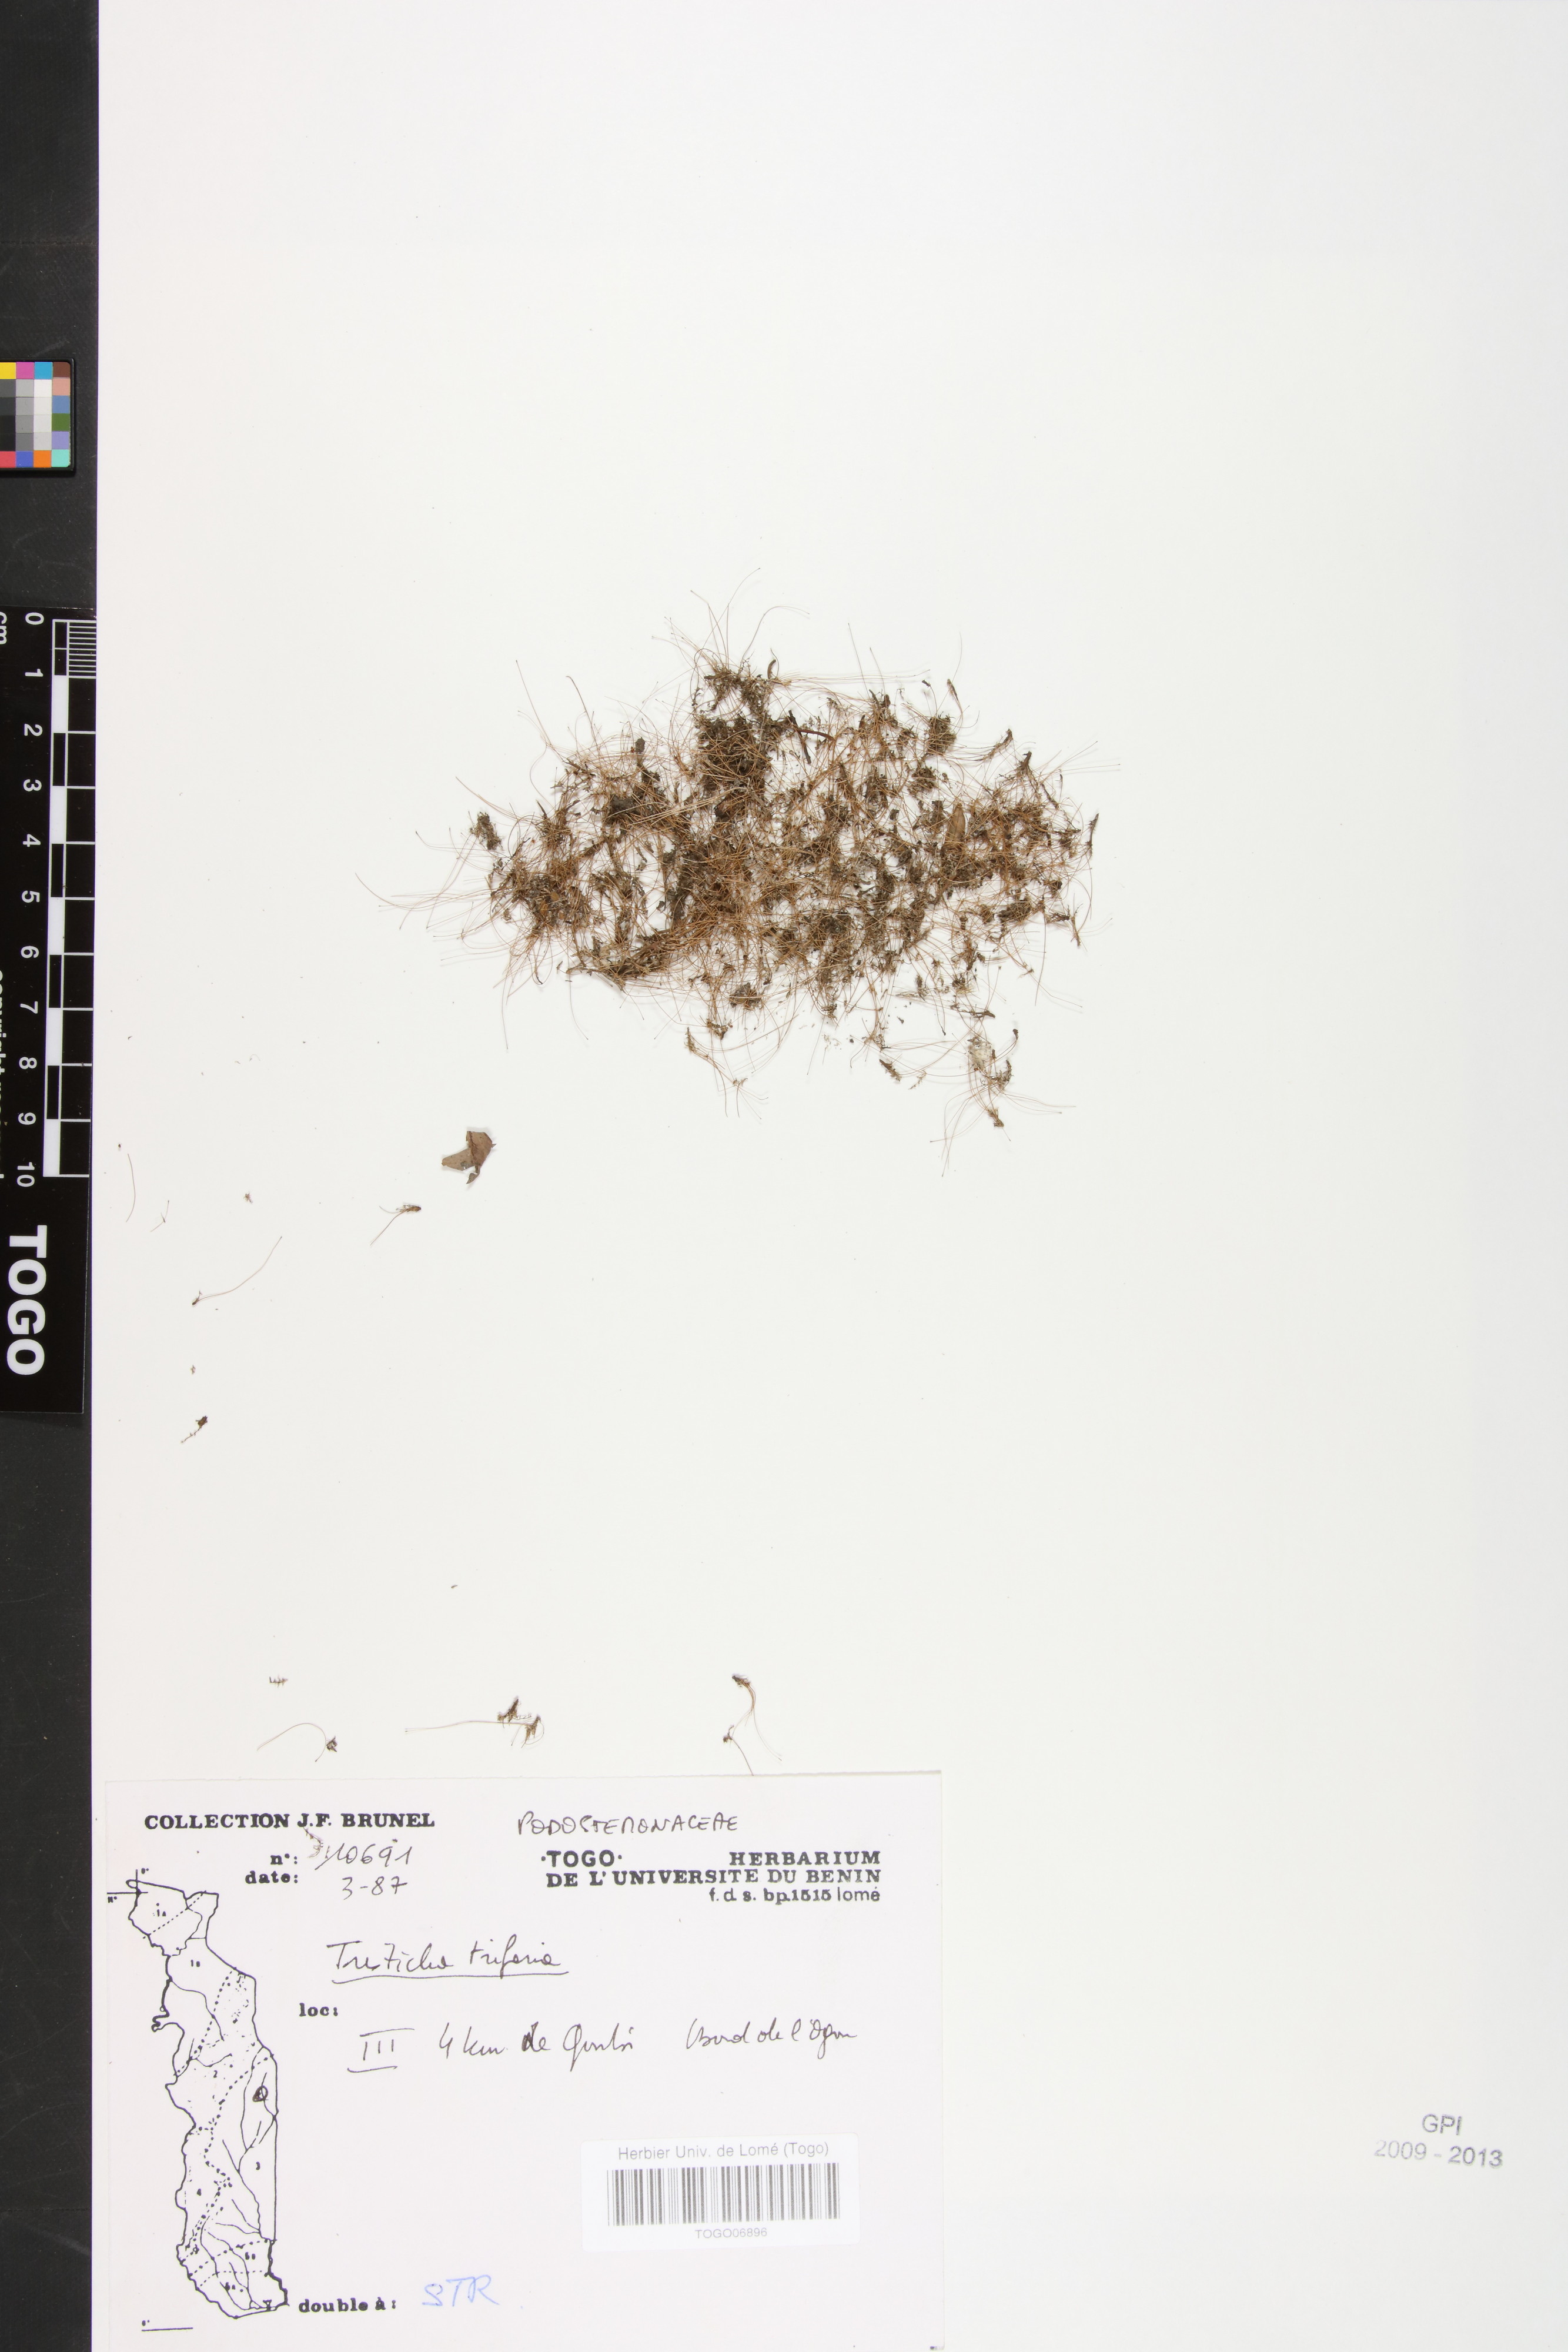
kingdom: Plantae
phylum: Tracheophyta
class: Magnoliopsida
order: Malpighiales
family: Podostemaceae
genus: Tristicha
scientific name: Tristicha trifaria
